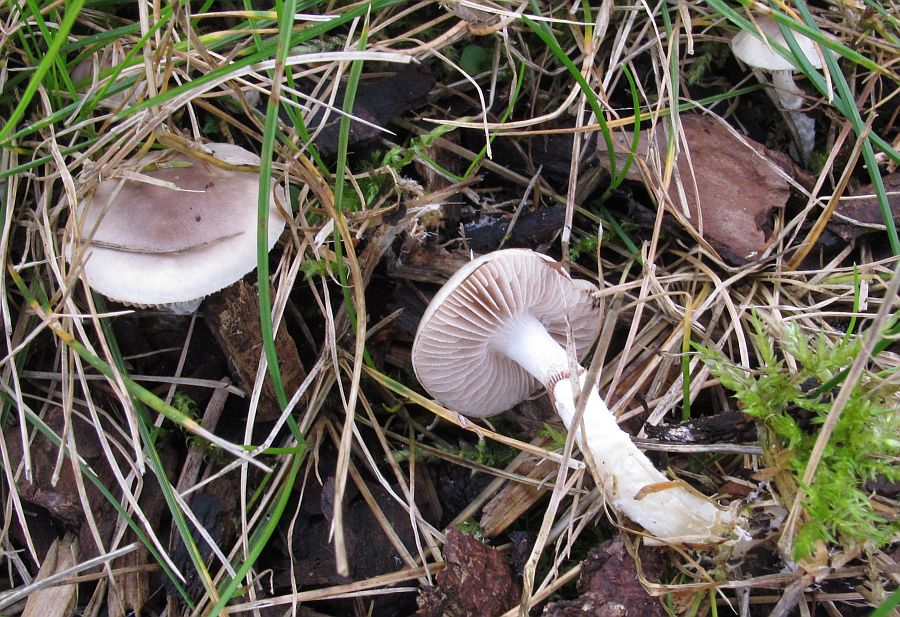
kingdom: Fungi
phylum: Basidiomycota
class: Agaricomycetes
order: Agaricales
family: Strophariaceae
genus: Stropharia
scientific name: Stropharia inuncta
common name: lillabrun bredblad
